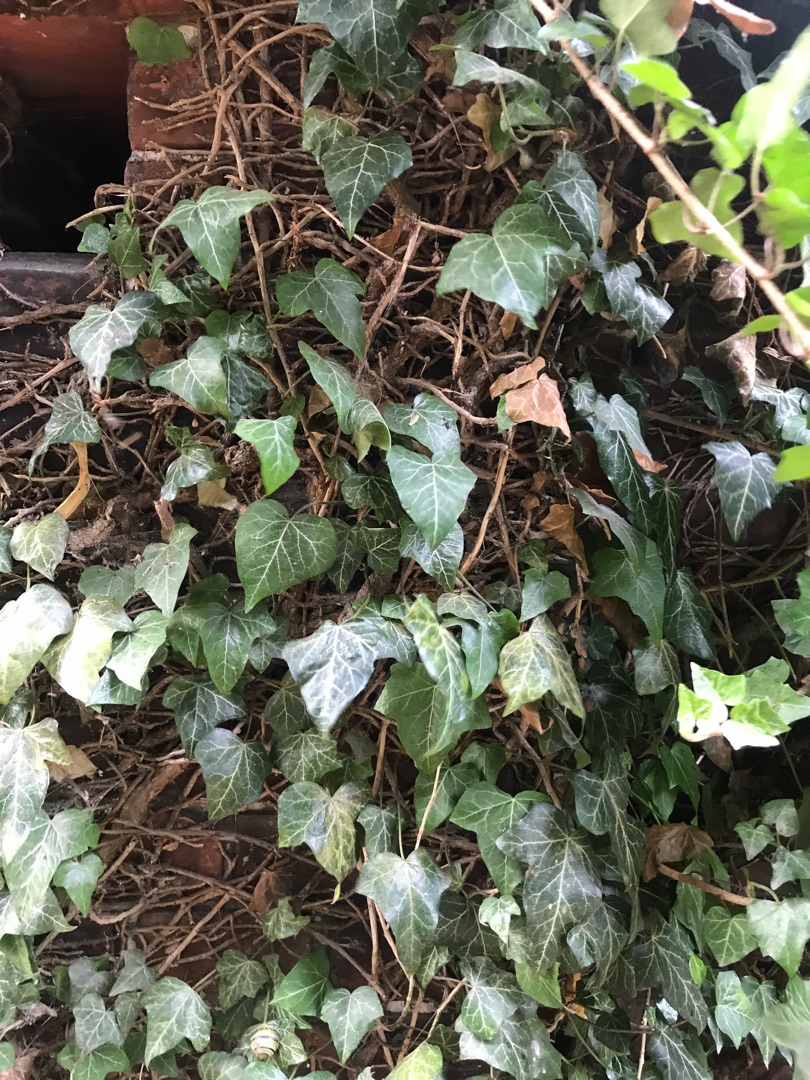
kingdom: Plantae
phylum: Tracheophyta
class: Magnoliopsida
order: Apiales
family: Araliaceae
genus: Hedera
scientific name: Hedera helix
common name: Vedbend
